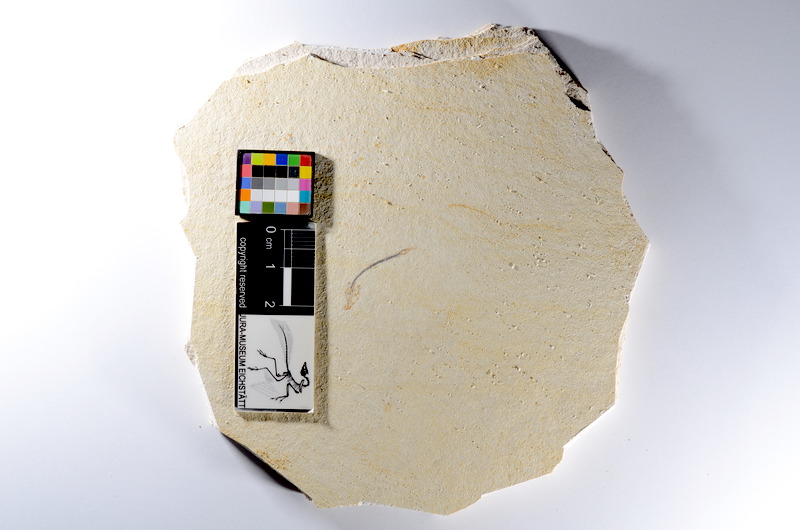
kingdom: Animalia
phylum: Chordata
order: Salmoniformes
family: Orthogonikleithridae
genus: Orthogonikleithrus
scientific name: Orthogonikleithrus hoelli
